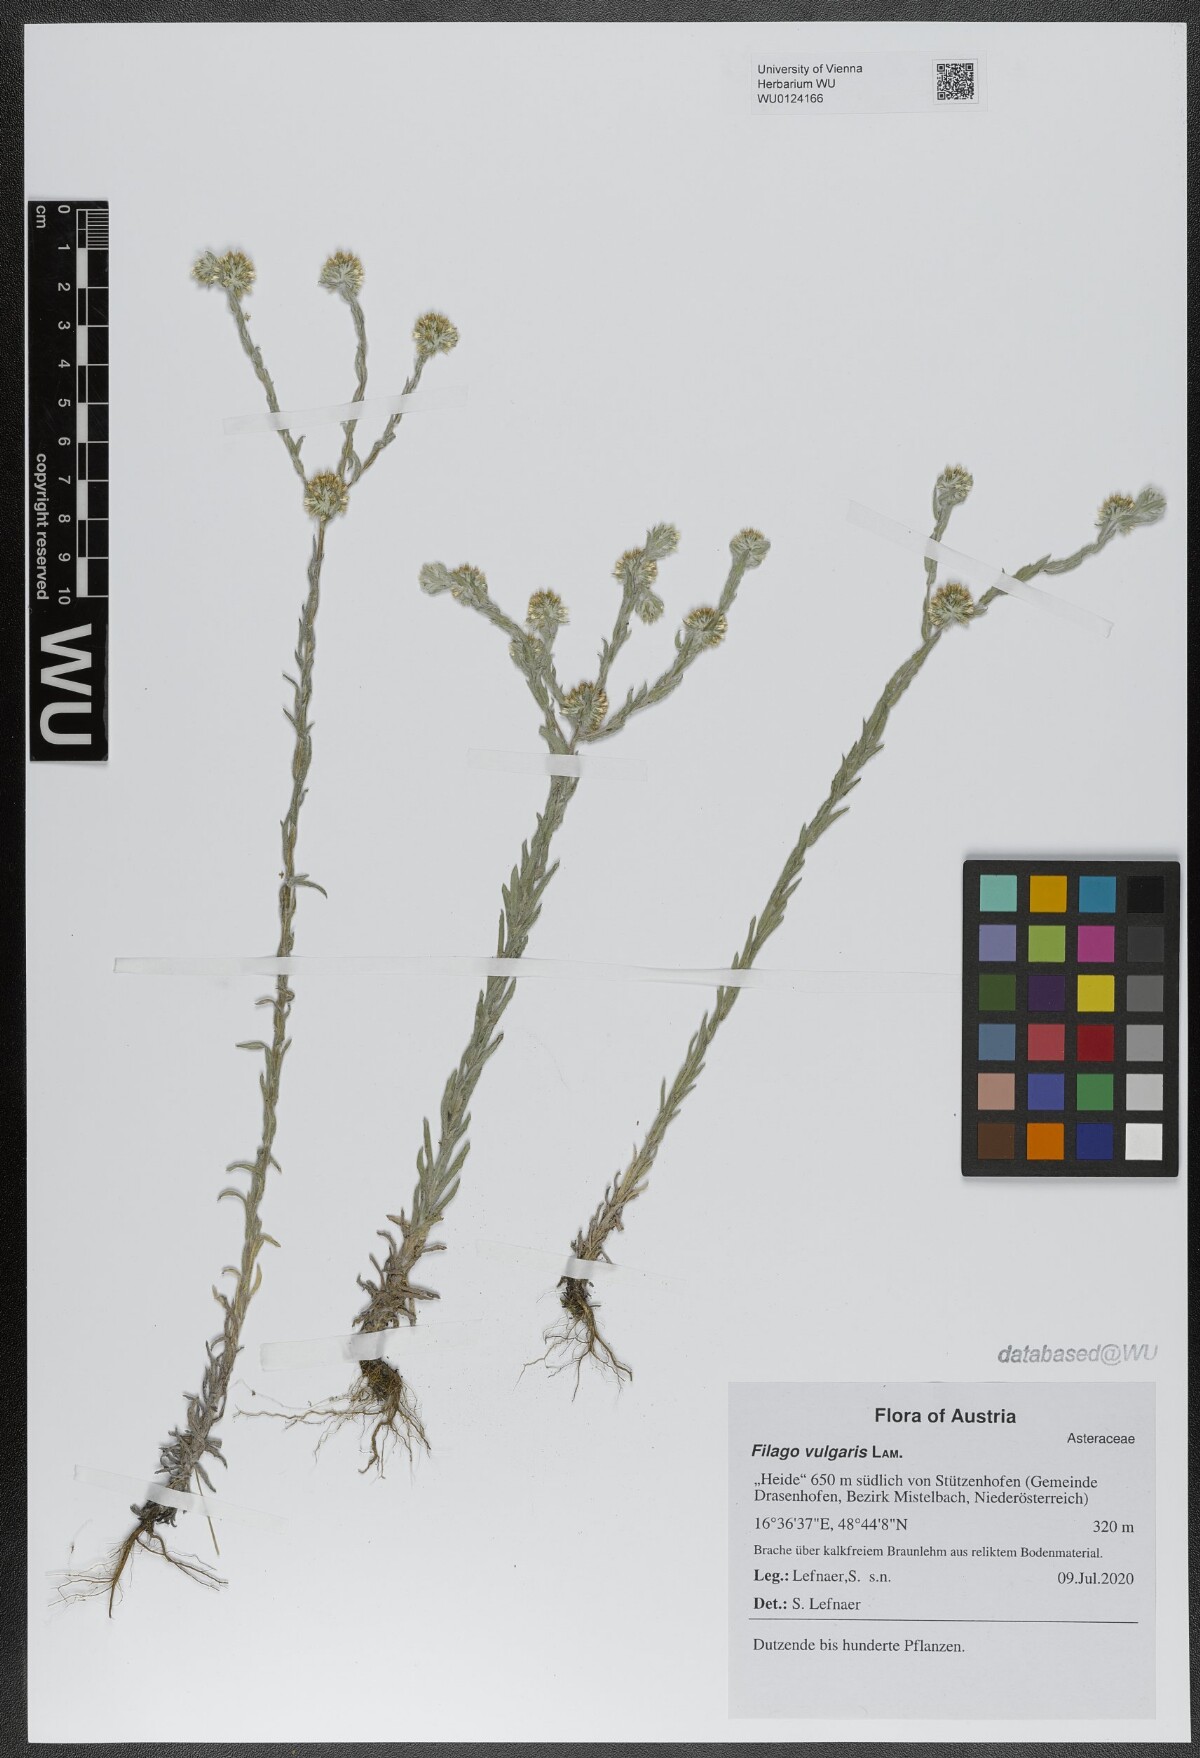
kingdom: Plantae
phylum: Tracheophyta
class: Magnoliopsida
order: Asterales
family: Asteraceae
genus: Filago
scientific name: Filago germanica
